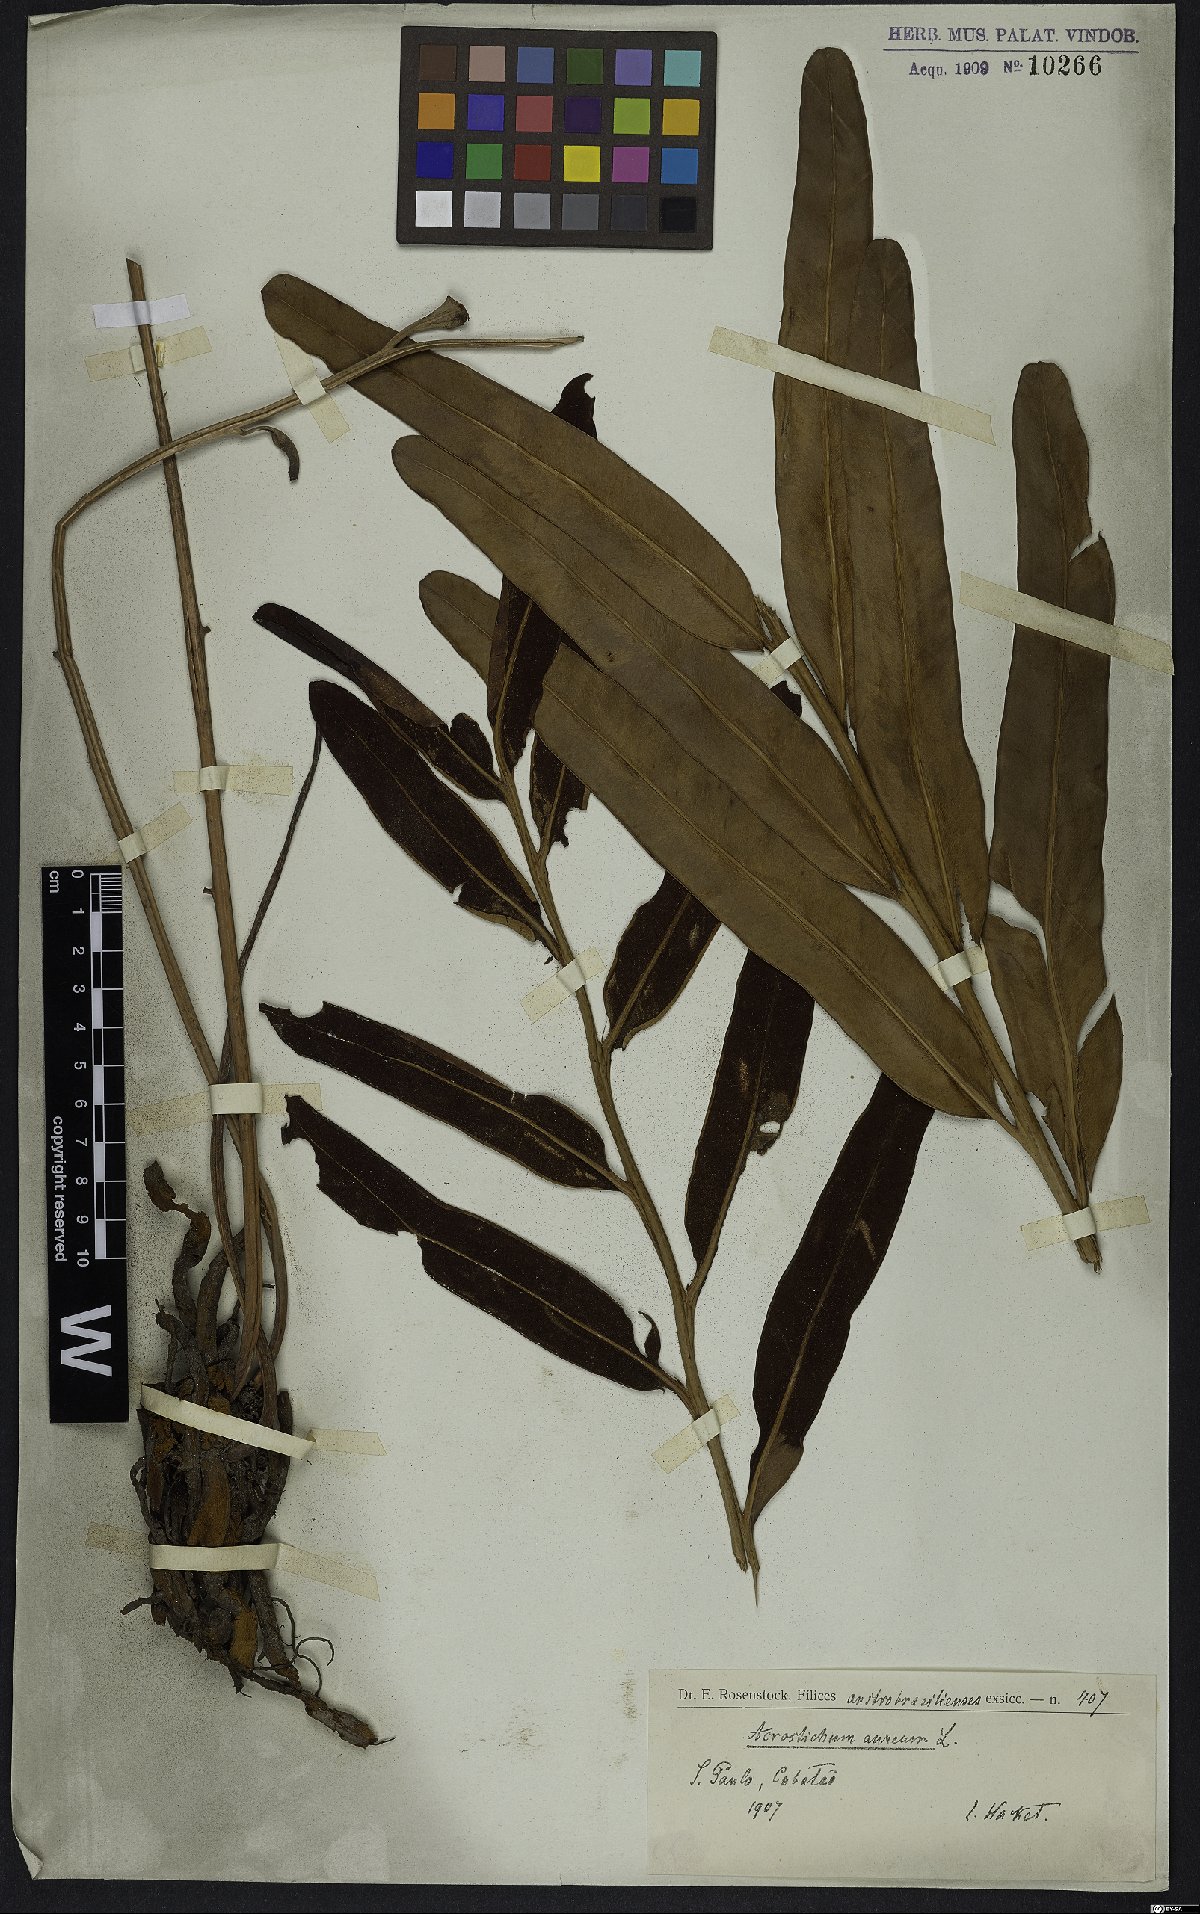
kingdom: Plantae
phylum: Tracheophyta
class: Polypodiopsida
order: Polypodiales
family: Pteridaceae
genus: Acrostichum
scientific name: Acrostichum aureum
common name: Leather fern
